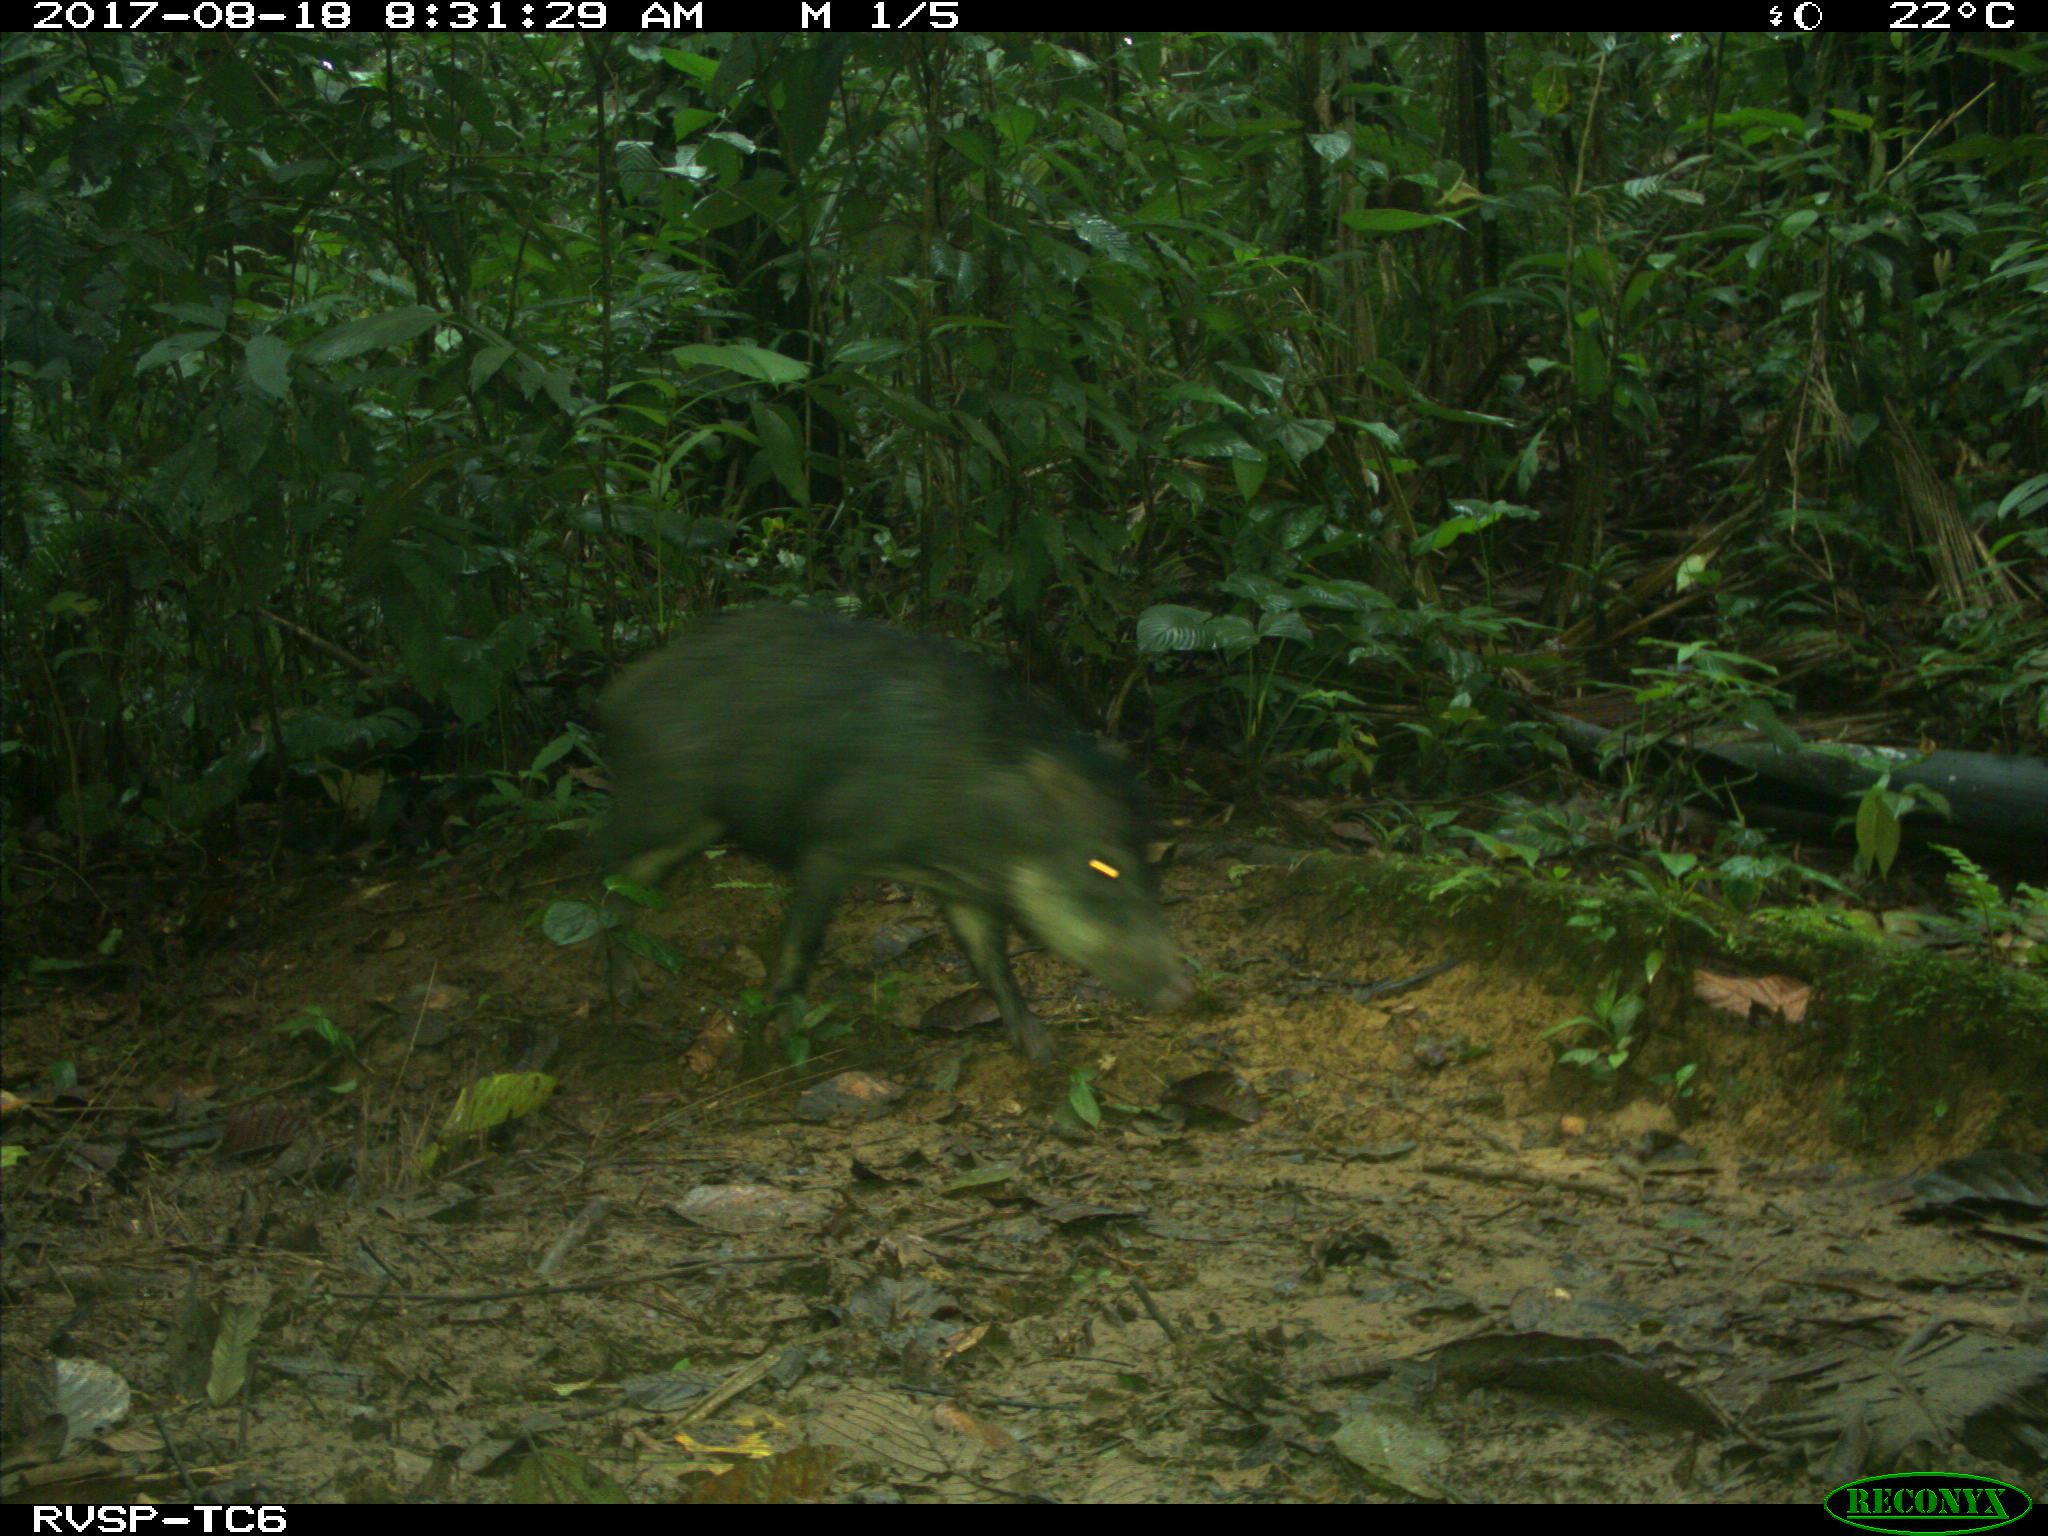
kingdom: Animalia
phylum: Chordata
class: Mammalia
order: Artiodactyla
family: Tayassuidae
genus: Tayassu
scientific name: Tayassu pecari
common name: White-lipped peccary
